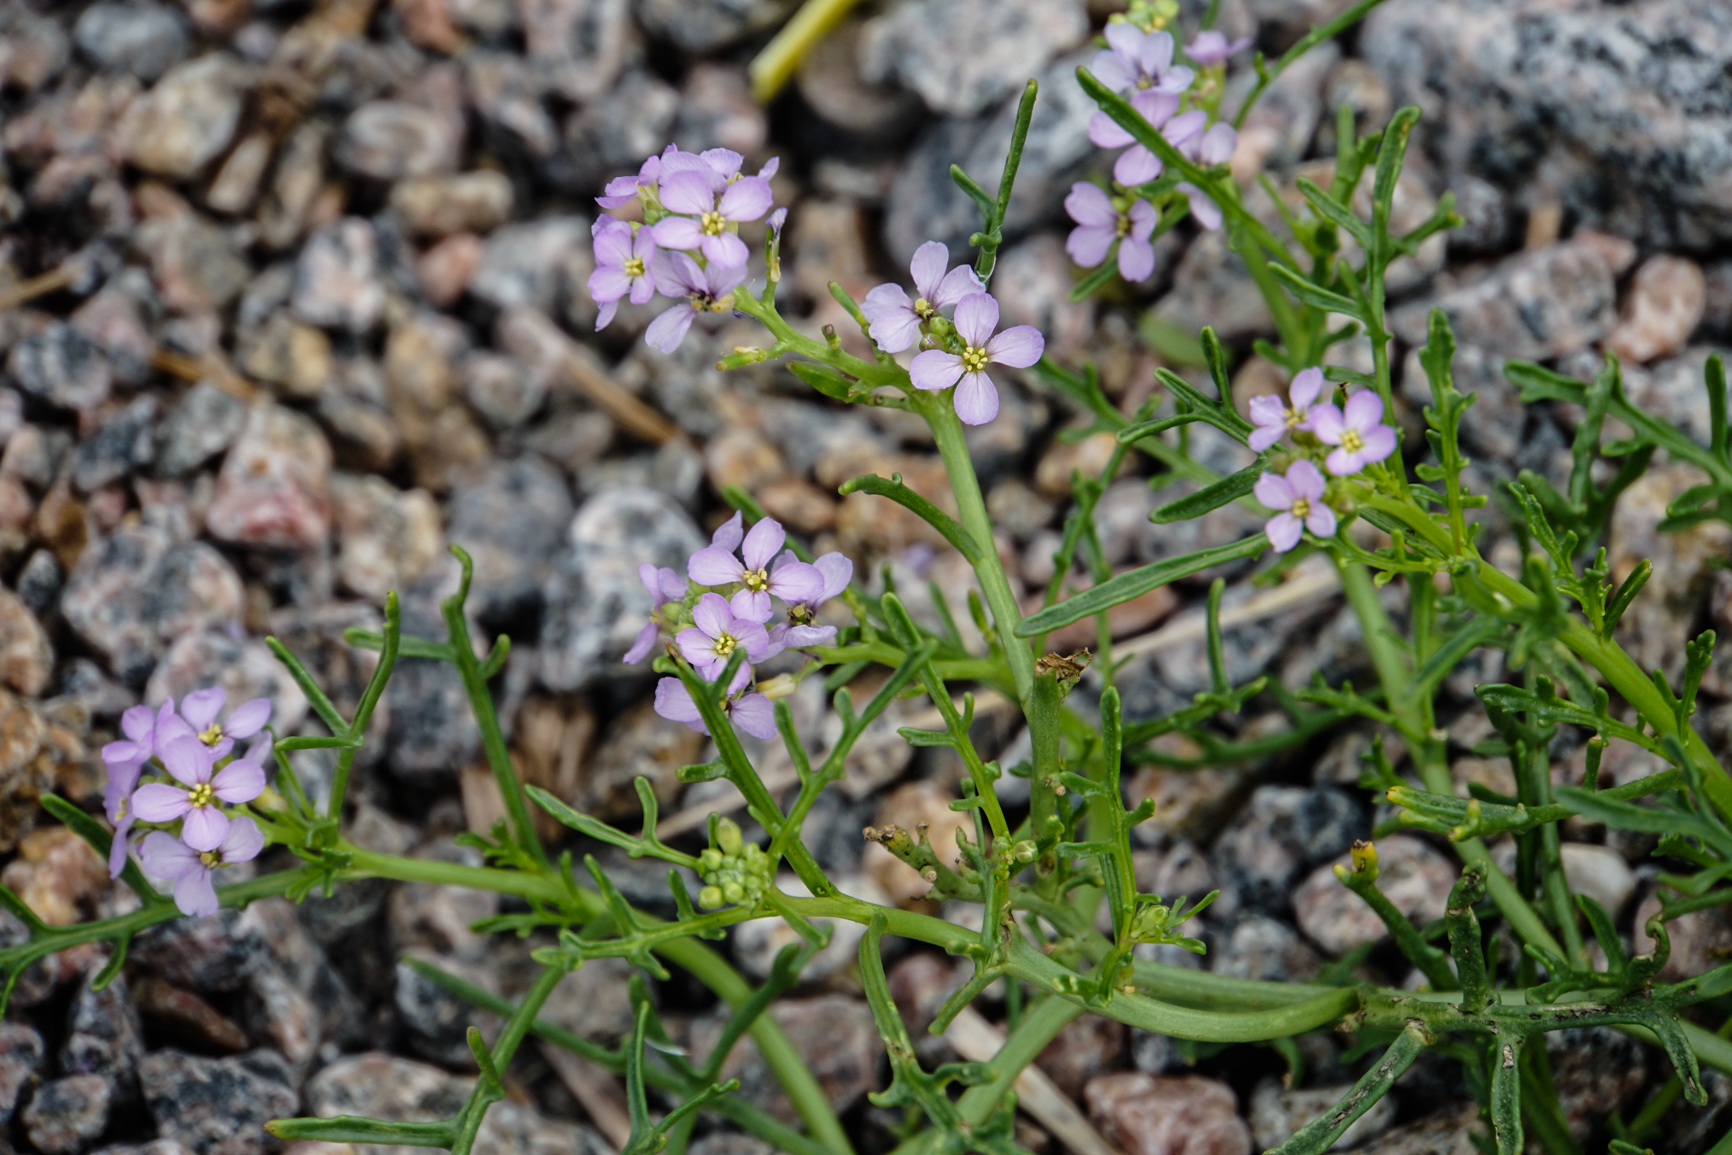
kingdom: Plantae
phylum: Tracheophyta
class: Magnoliopsida
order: Brassicales
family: Brassicaceae
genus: Cakile
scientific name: Cakile maritima
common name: Sea rocket
